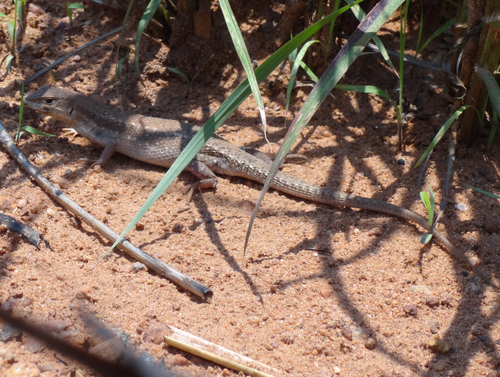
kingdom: Animalia
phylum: Chordata
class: Squamata
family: Lacertidae
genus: Meroles
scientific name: Meroles squamulosus
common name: Common desert lizard
